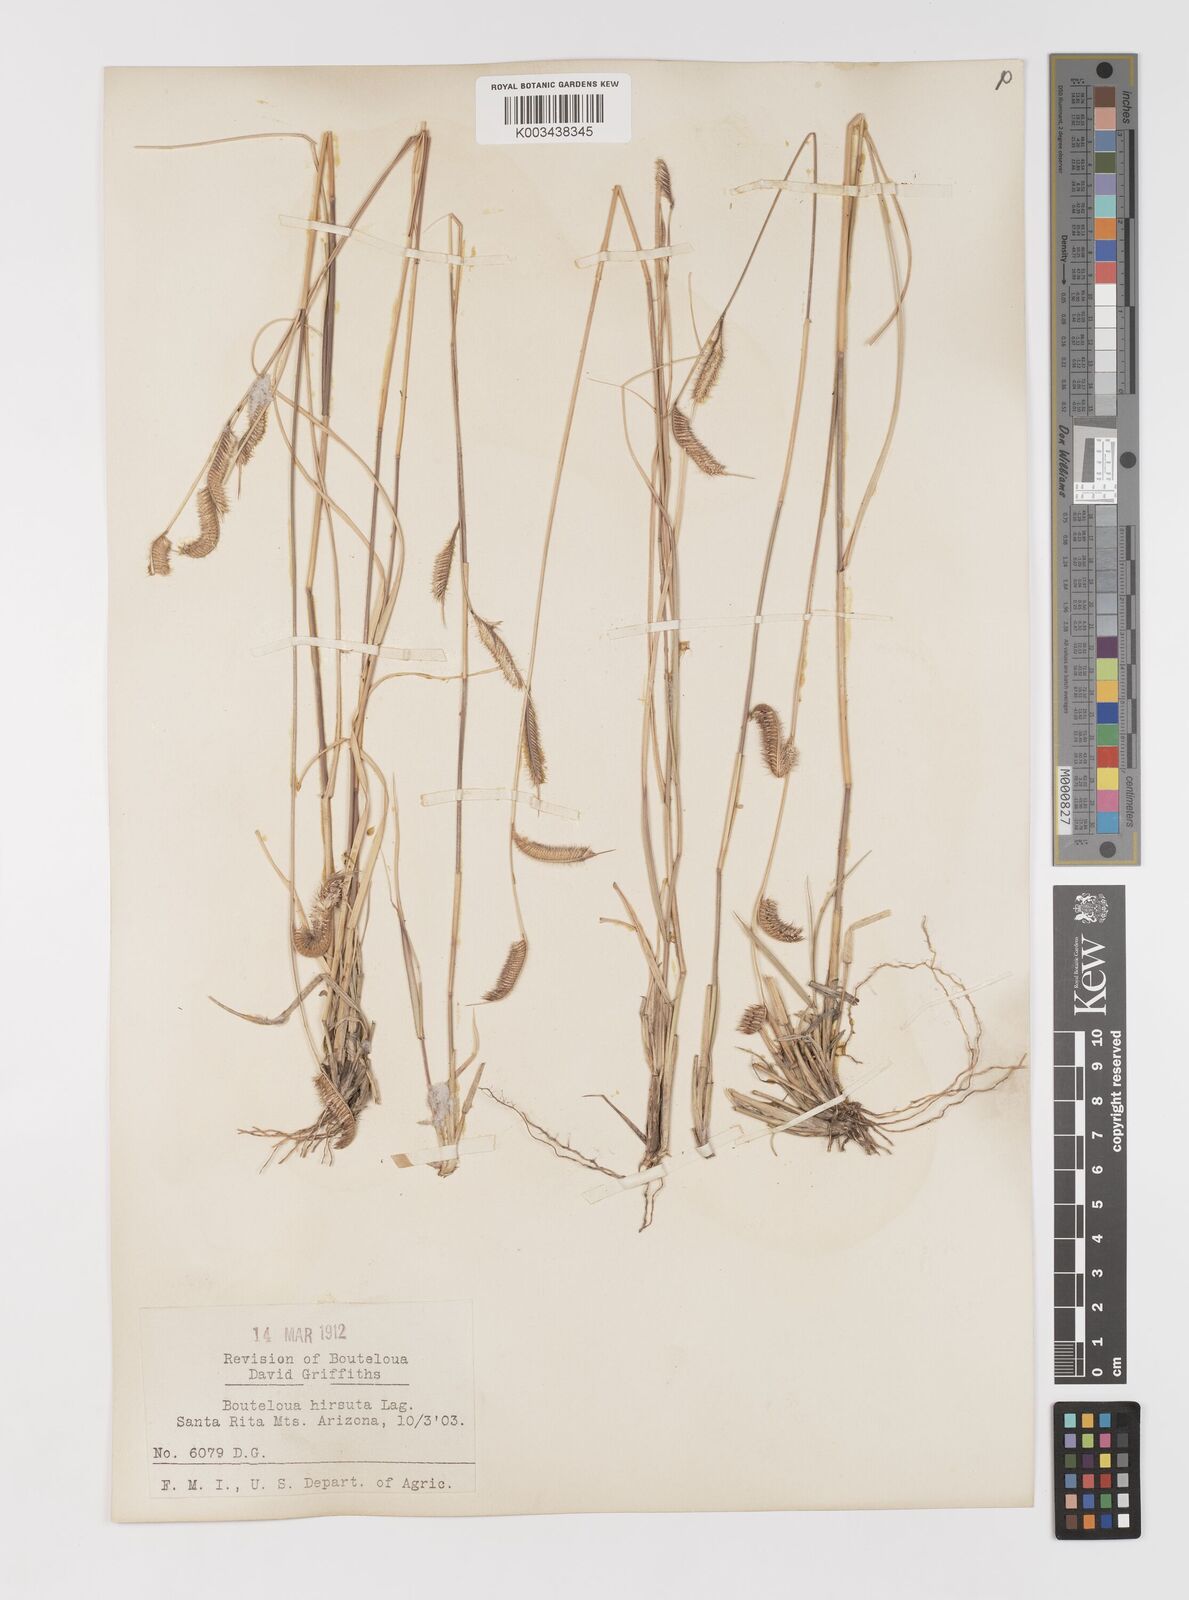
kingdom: Plantae
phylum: Tracheophyta
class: Liliopsida
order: Poales
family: Poaceae
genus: Bouteloua
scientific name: Bouteloua hirsuta
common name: Hairy grama
